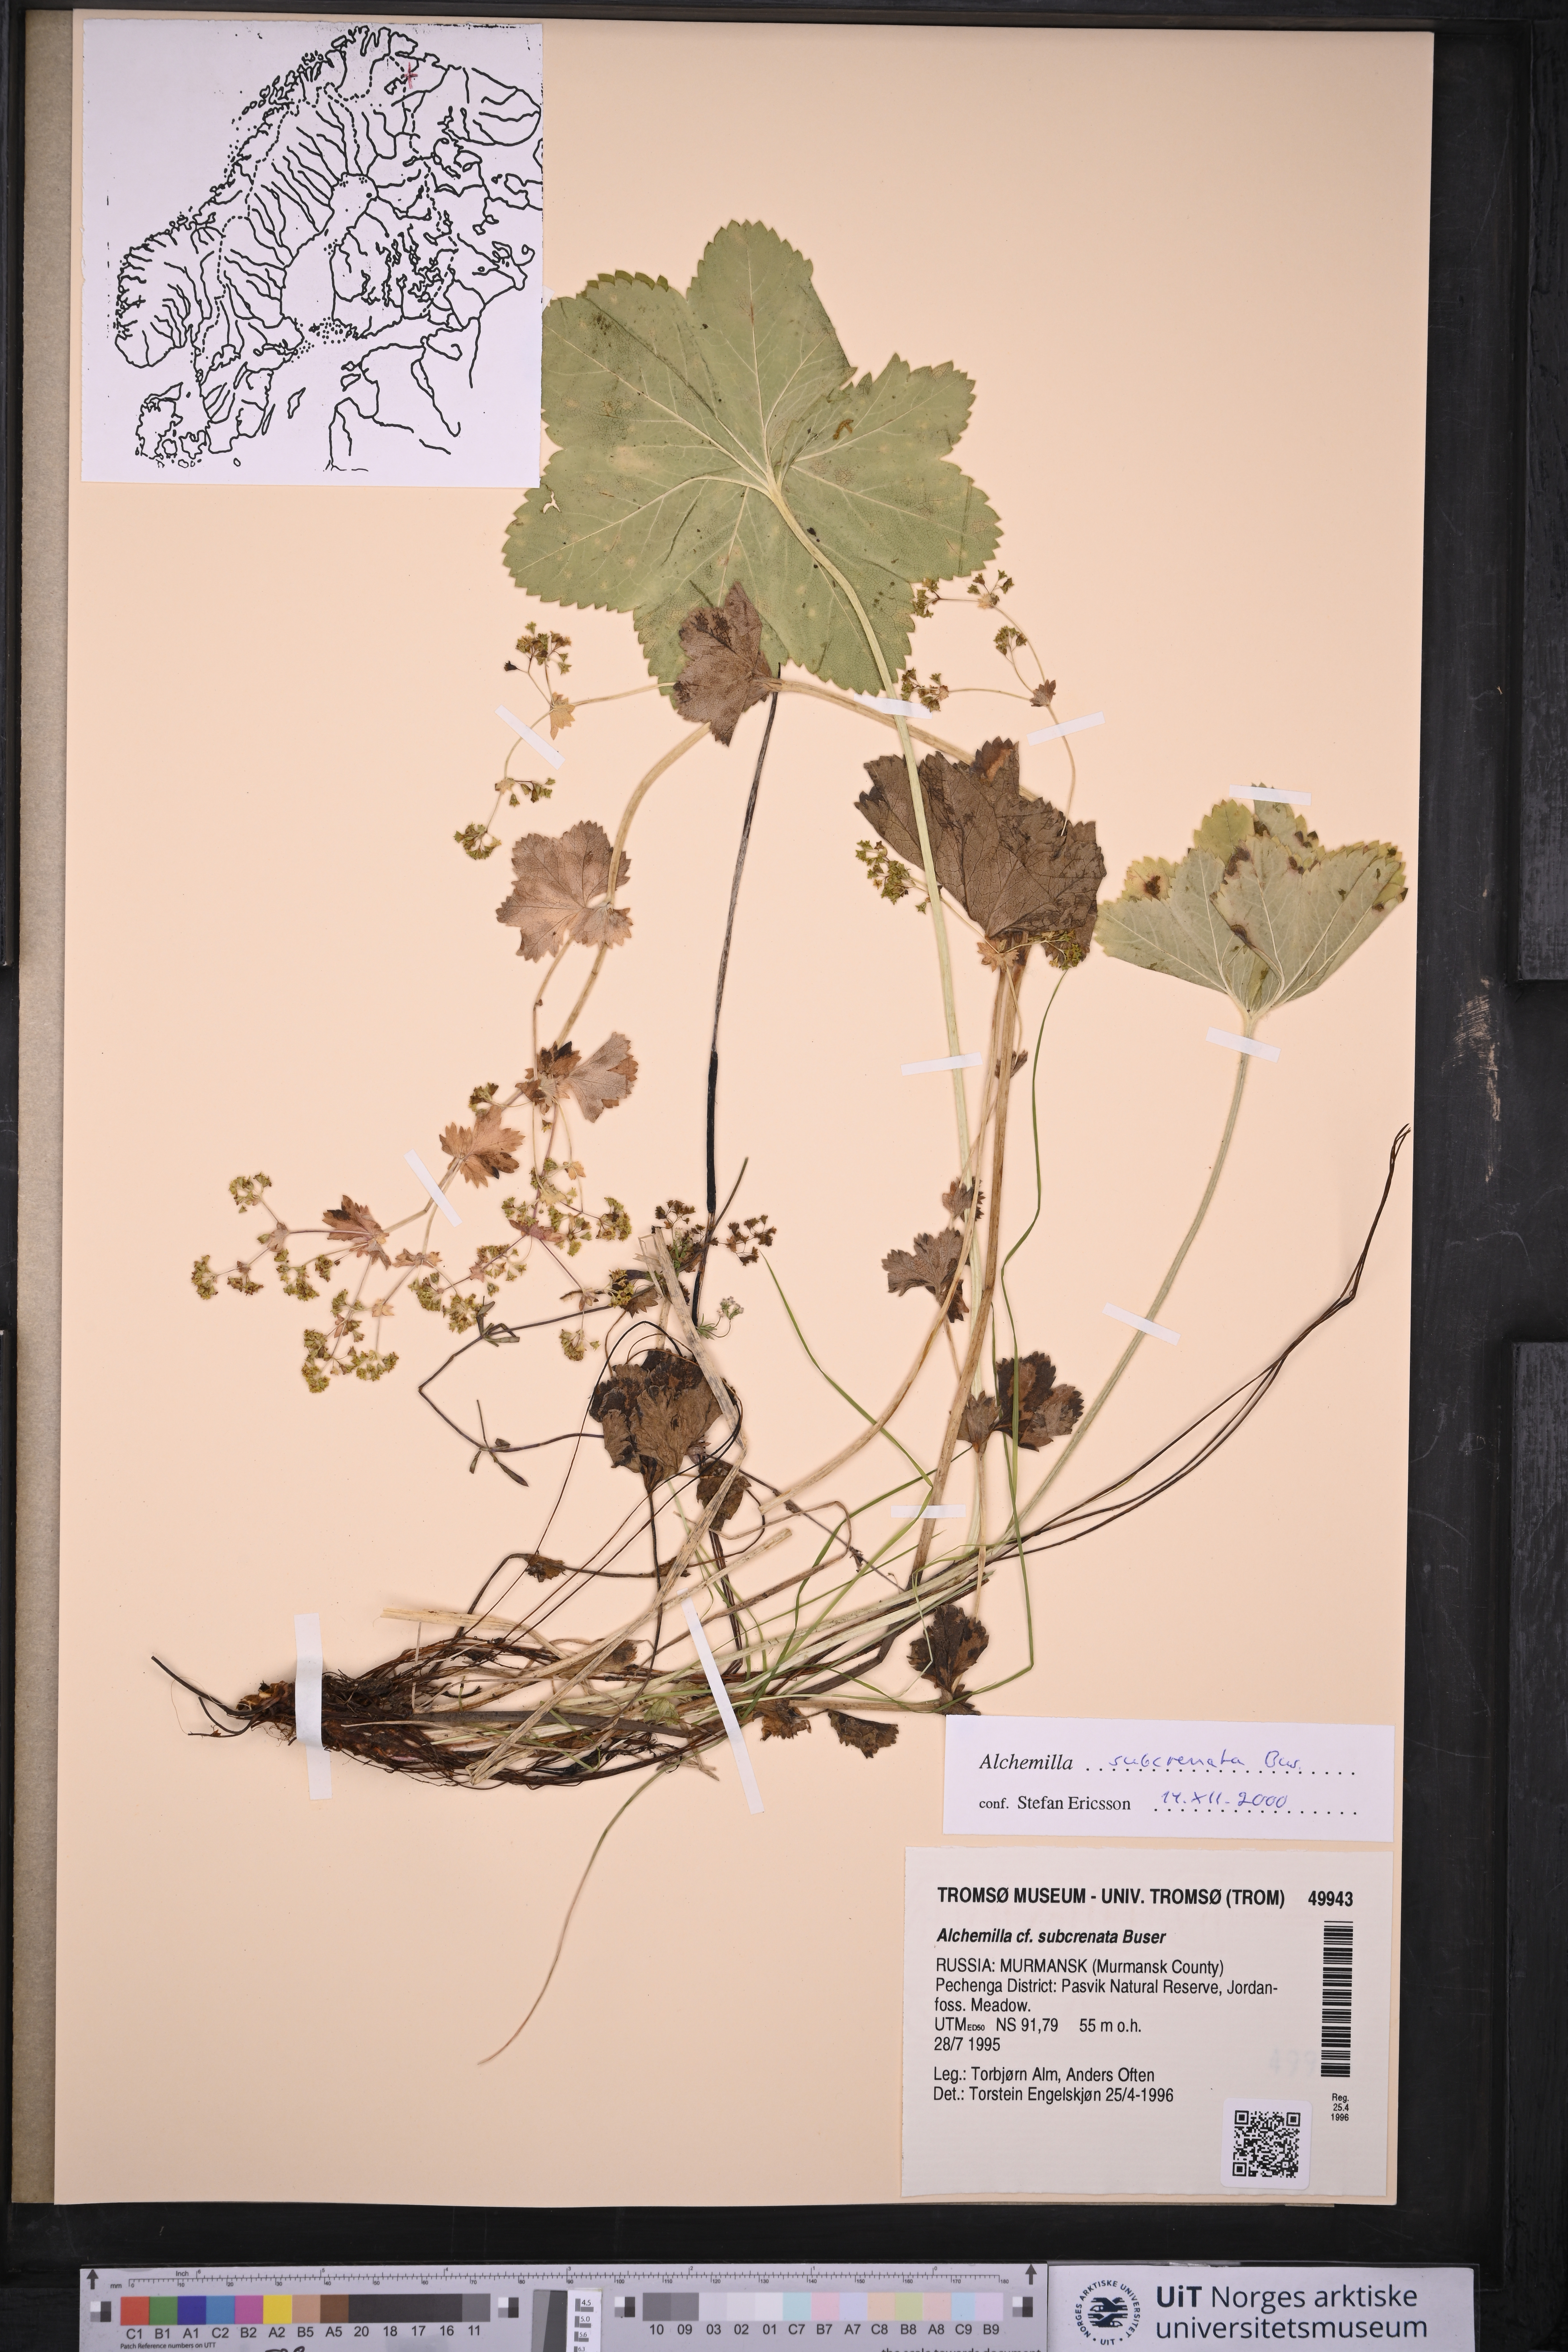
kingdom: Plantae
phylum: Tracheophyta
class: Magnoliopsida
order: Rosales
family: Rosaceae
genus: Alchemilla
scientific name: Alchemilla subcrenata
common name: Broadtooth lady's mantle
